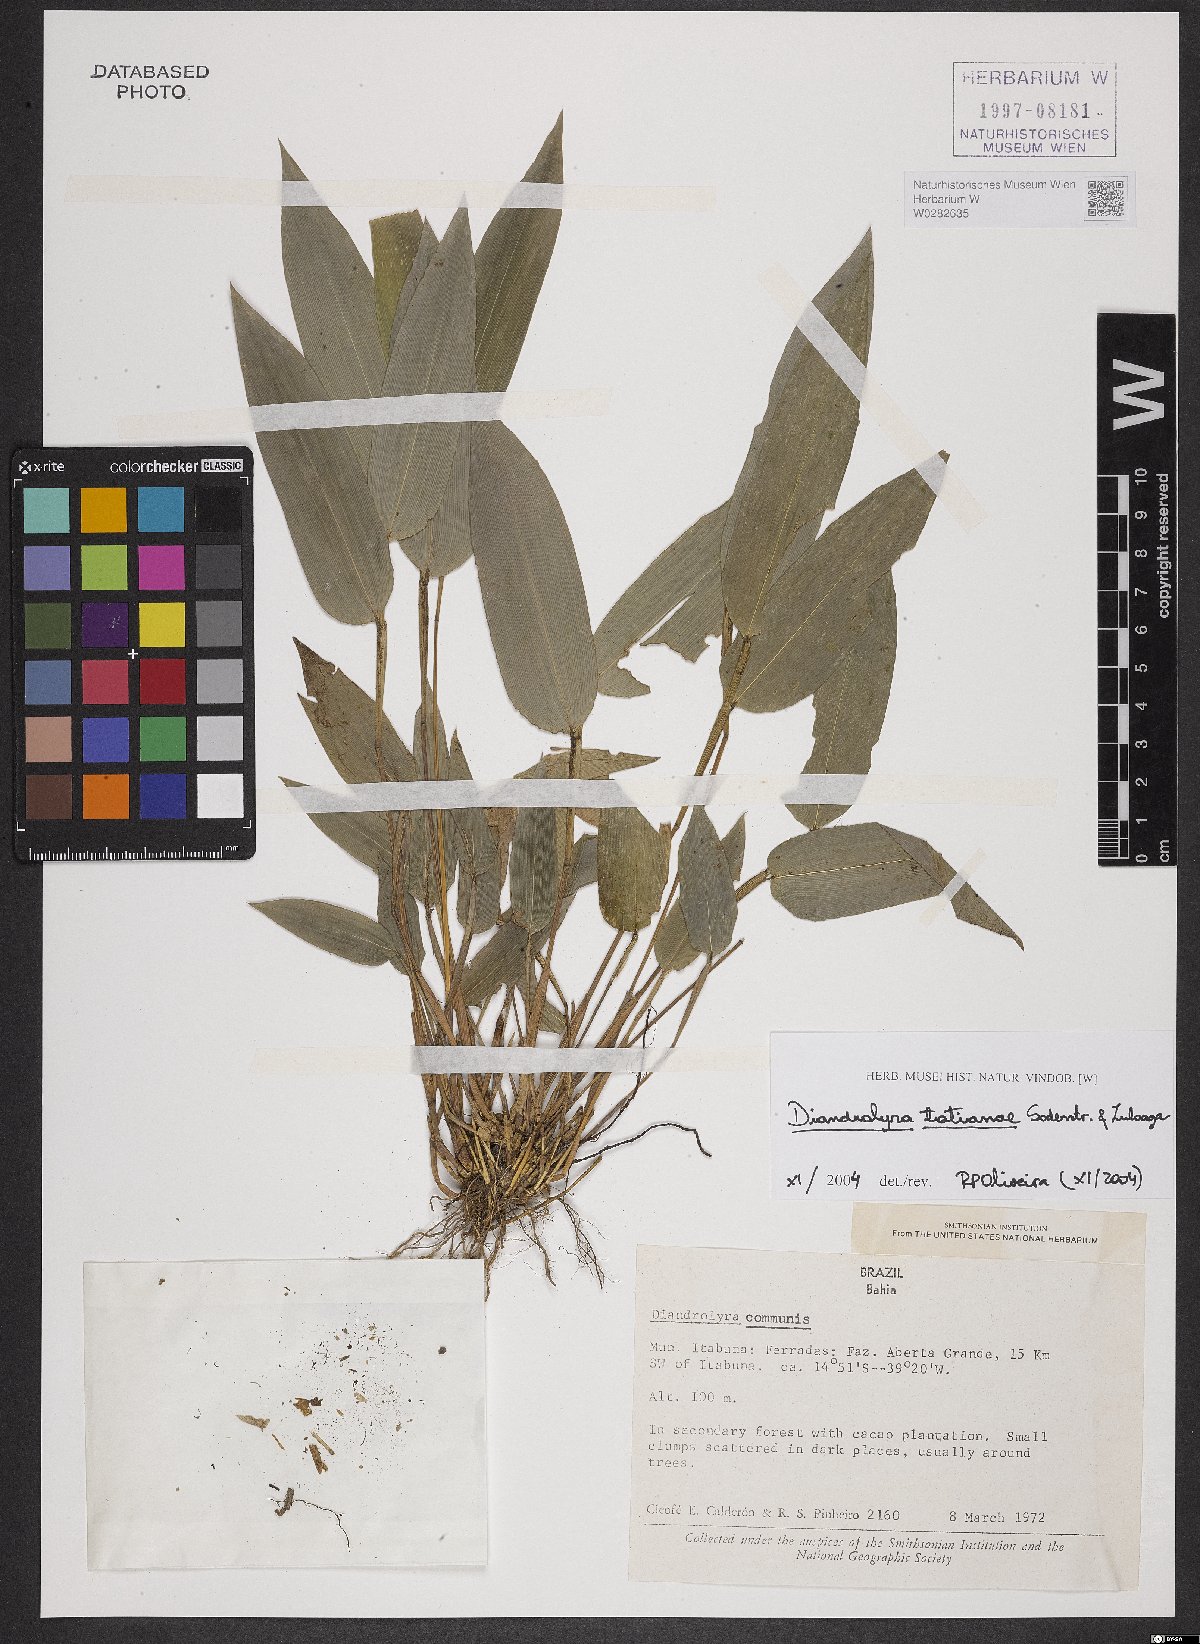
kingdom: Plantae
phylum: Tracheophyta
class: Liliopsida
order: Poales
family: Poaceae
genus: Diandrolyra
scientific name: Diandrolyra tatianae
